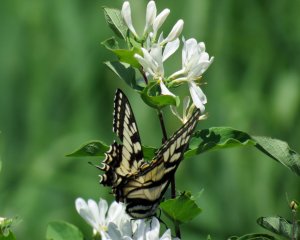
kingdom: Animalia
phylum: Arthropoda
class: Insecta
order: Lepidoptera
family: Papilionidae
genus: Pterourus
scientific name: Pterourus canadensis
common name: Canadian Tiger Swallowtail
